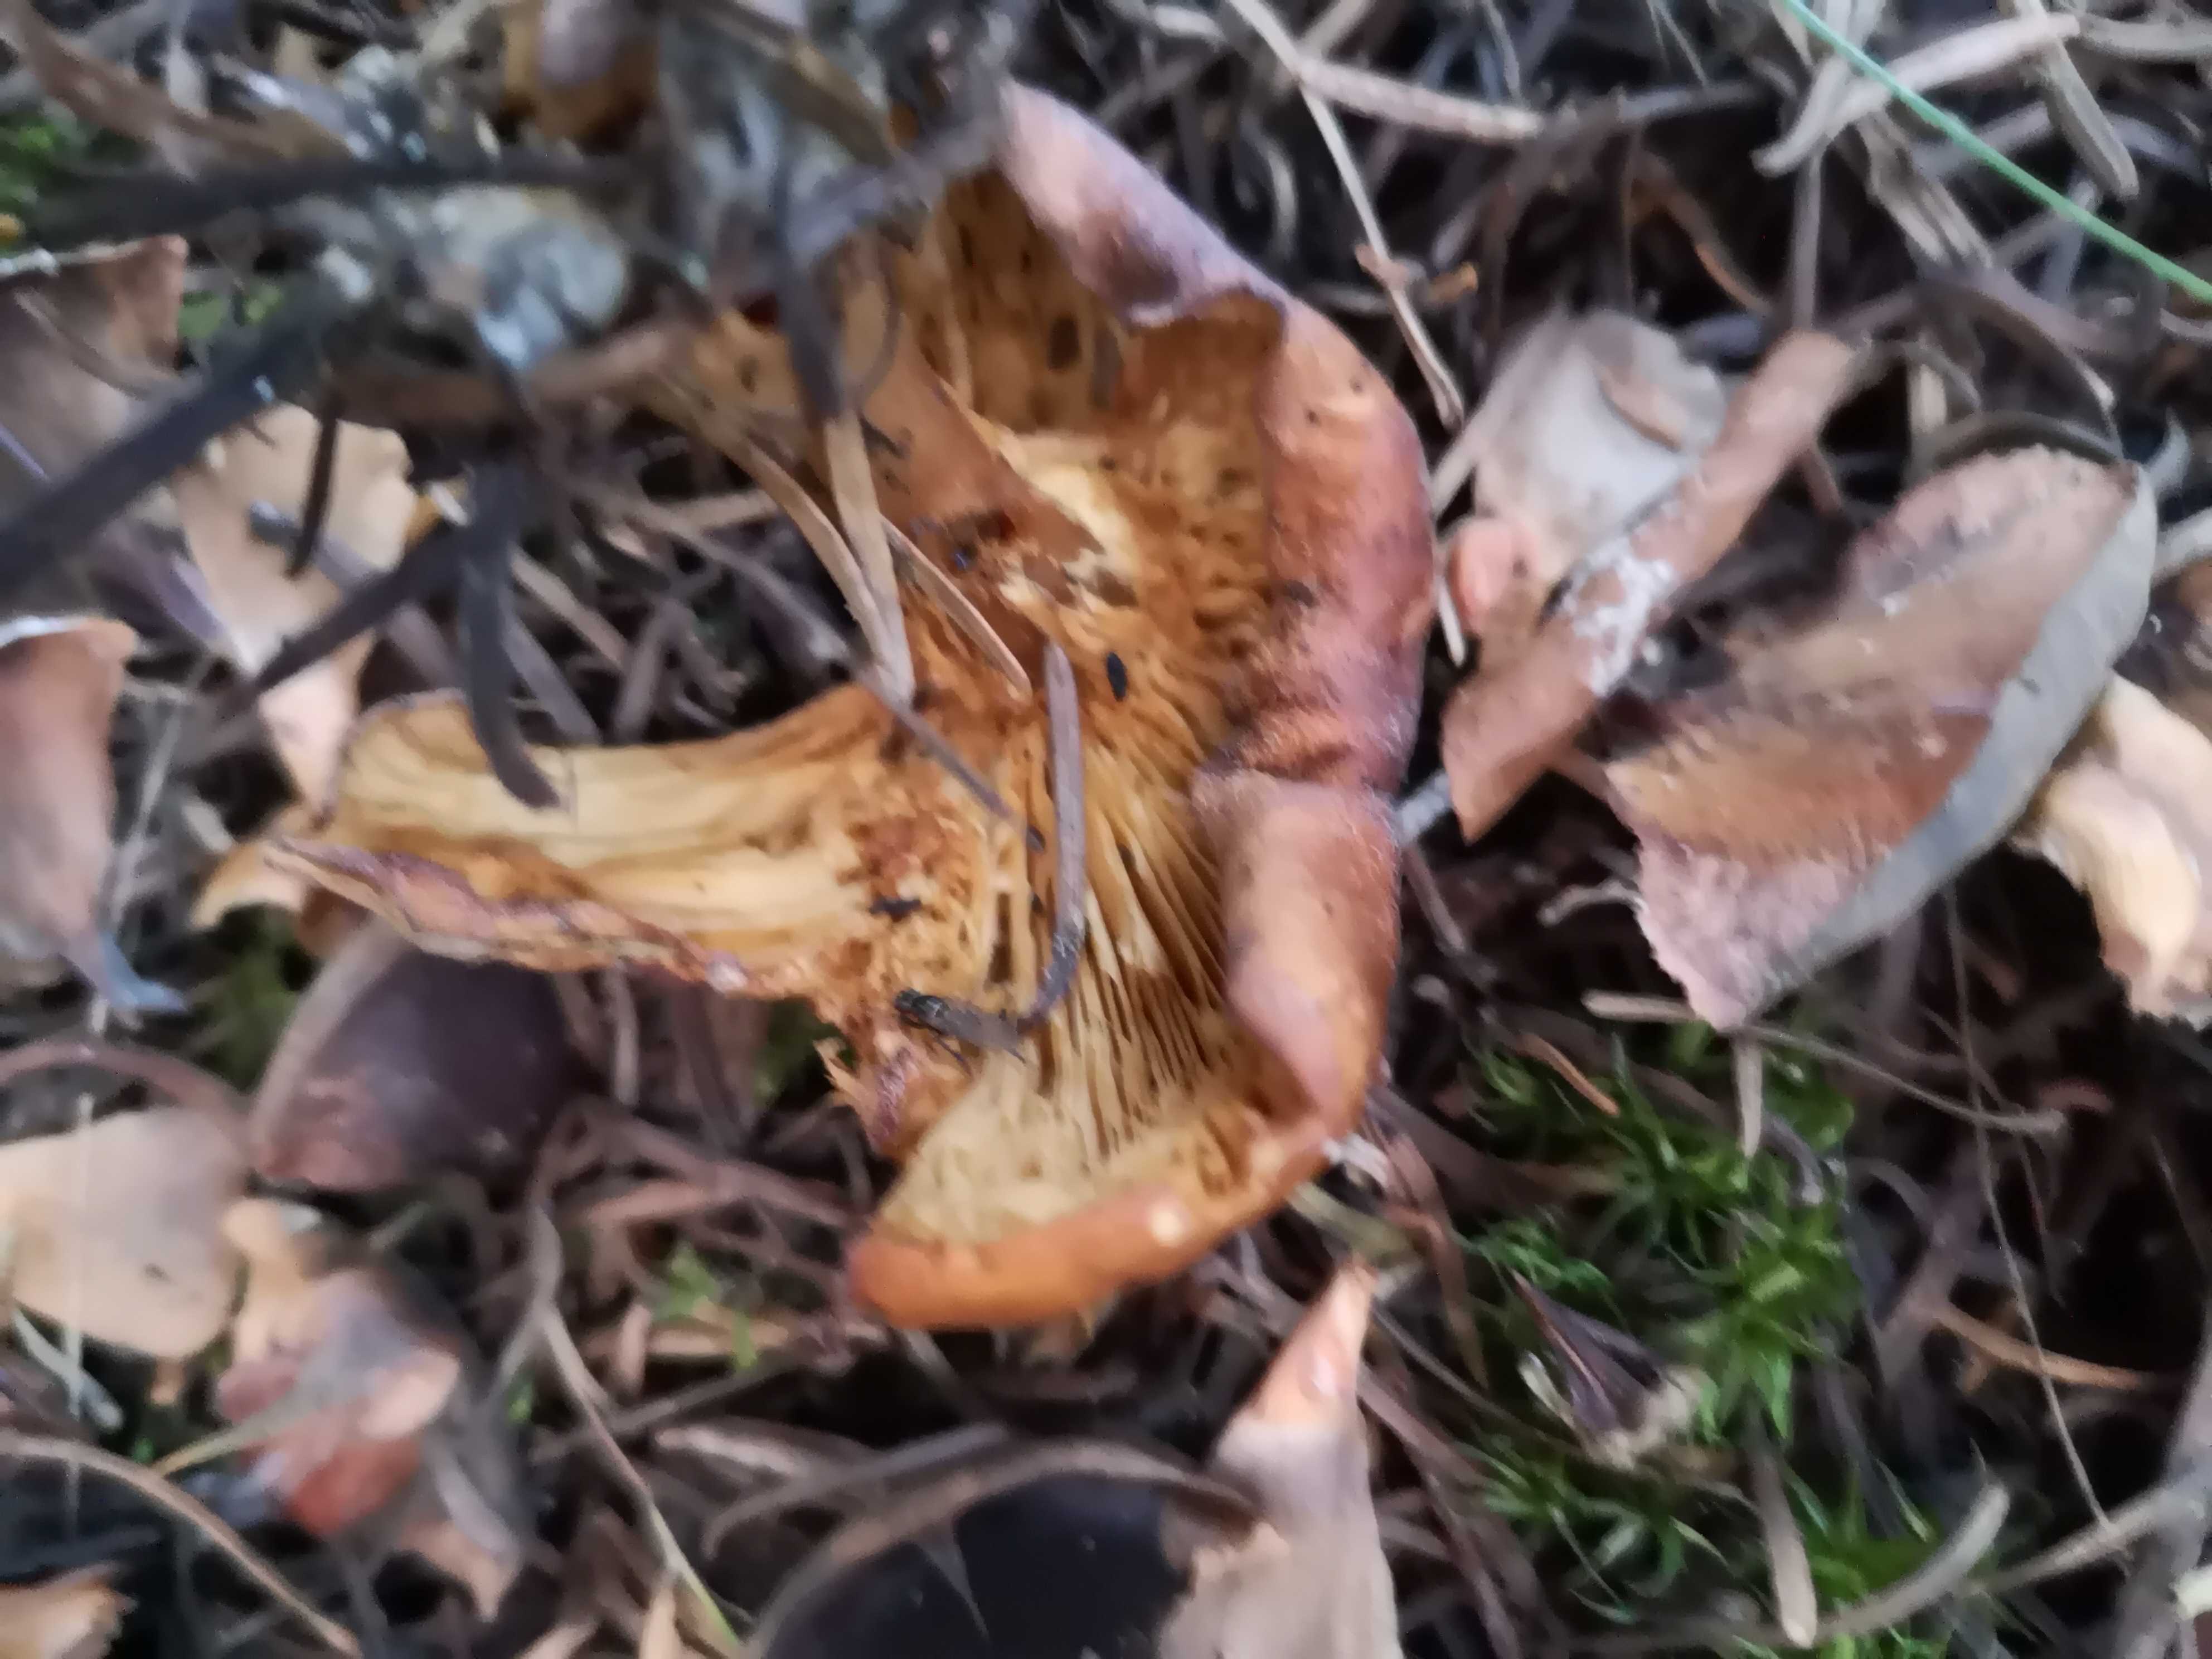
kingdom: Fungi
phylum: Basidiomycota
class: Agaricomycetes
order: Agaricales
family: Tricholomataceae
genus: Paralepista
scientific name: Paralepista flaccida
